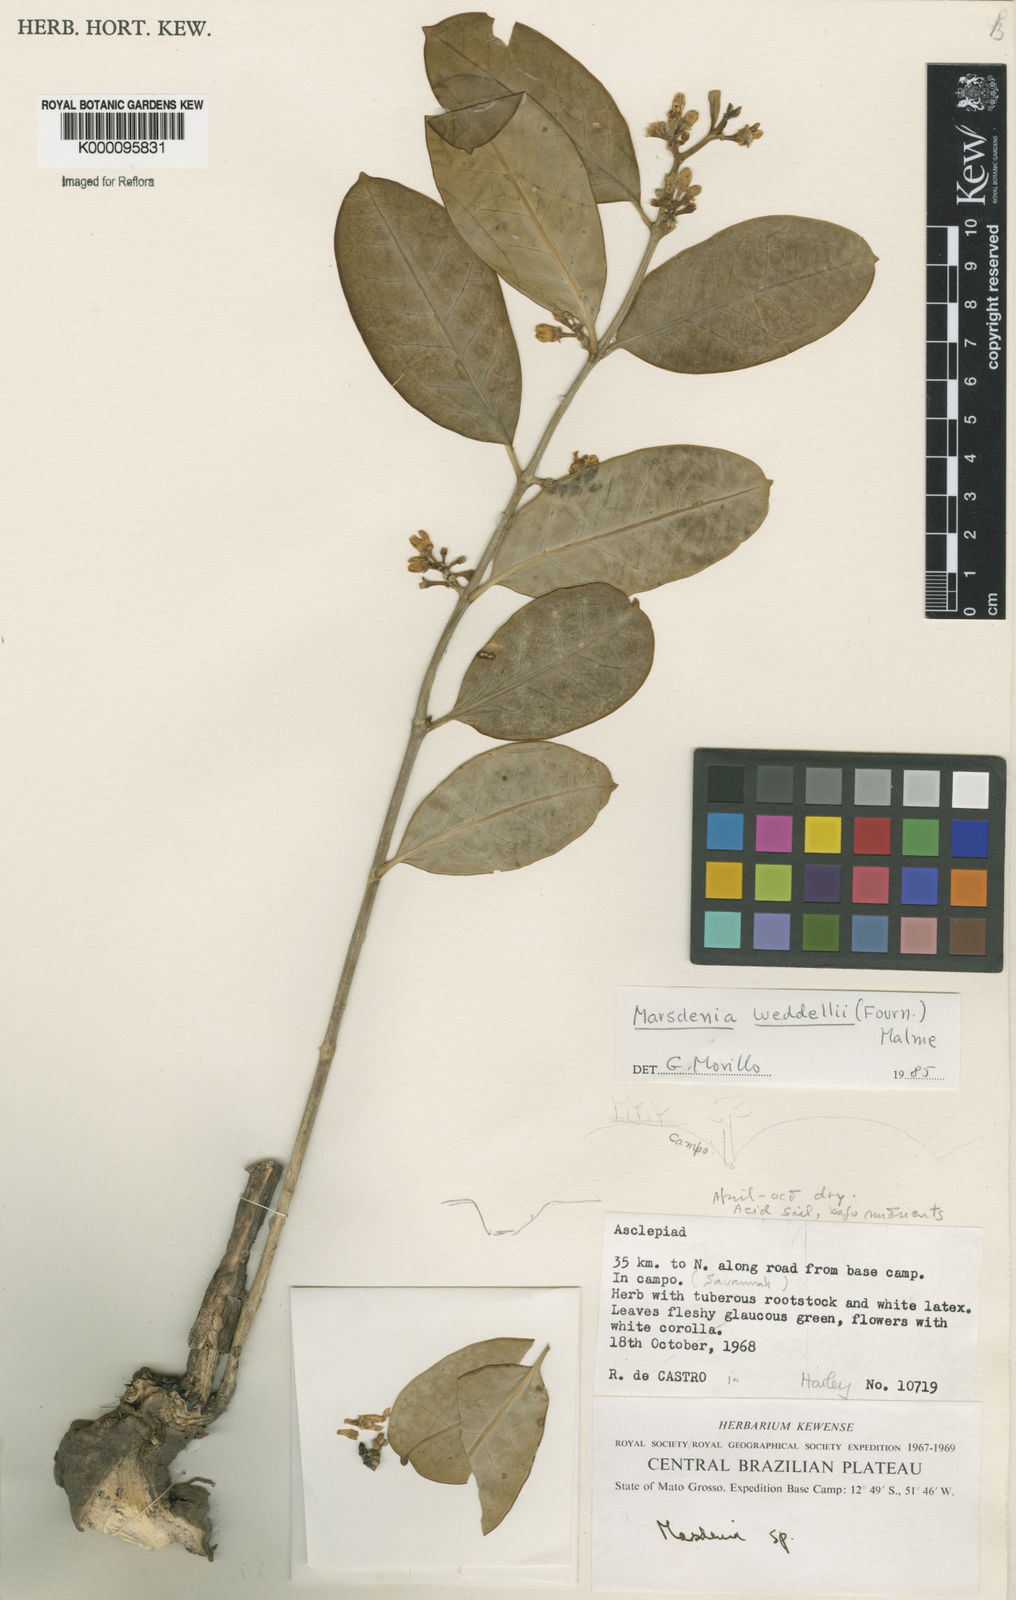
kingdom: Plantae
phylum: Tracheophyta
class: Magnoliopsida
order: Gentianales
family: Apocynaceae
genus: Ruehssia
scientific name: Ruehssia weddellii
